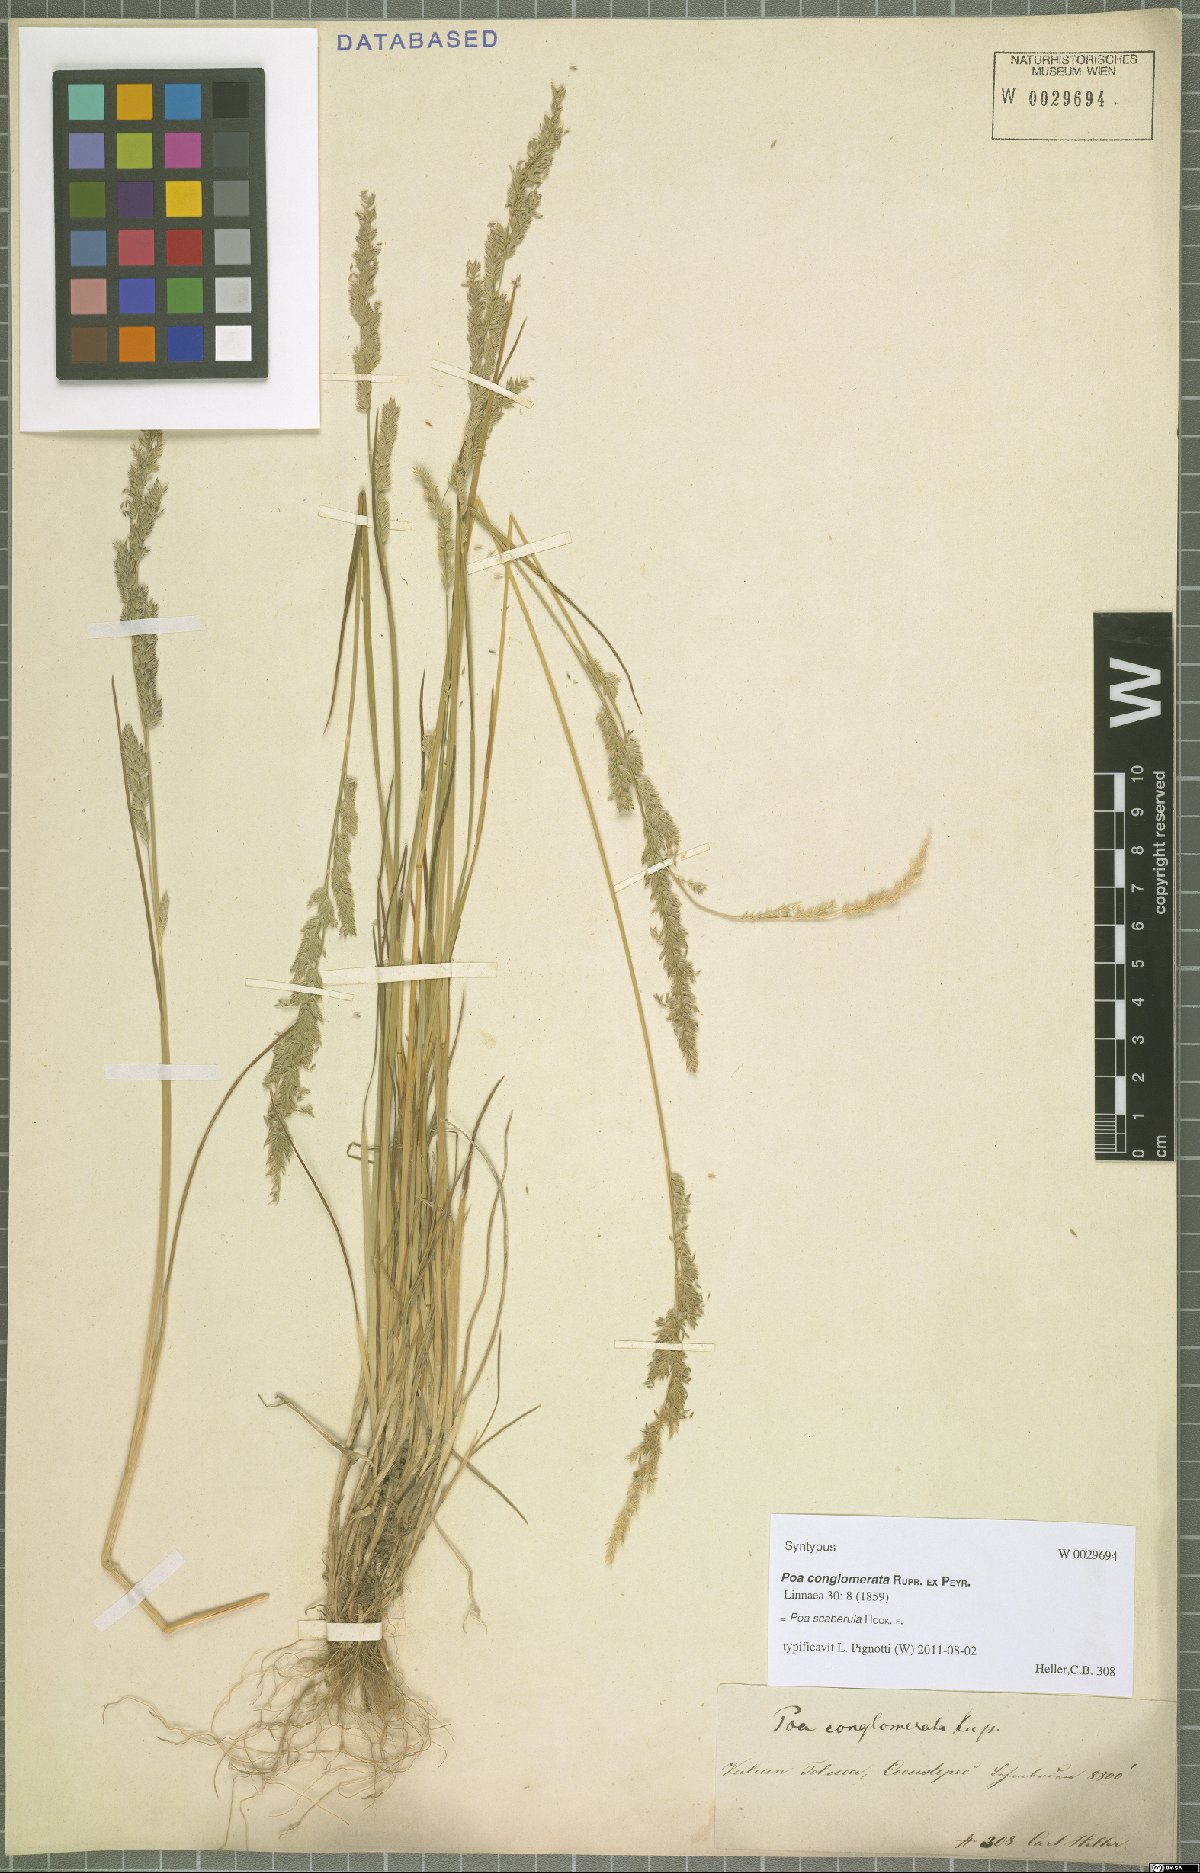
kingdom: Plantae
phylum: Tracheophyta
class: Liliopsida
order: Poales
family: Poaceae
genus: Poa
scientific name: Poa scaberula
